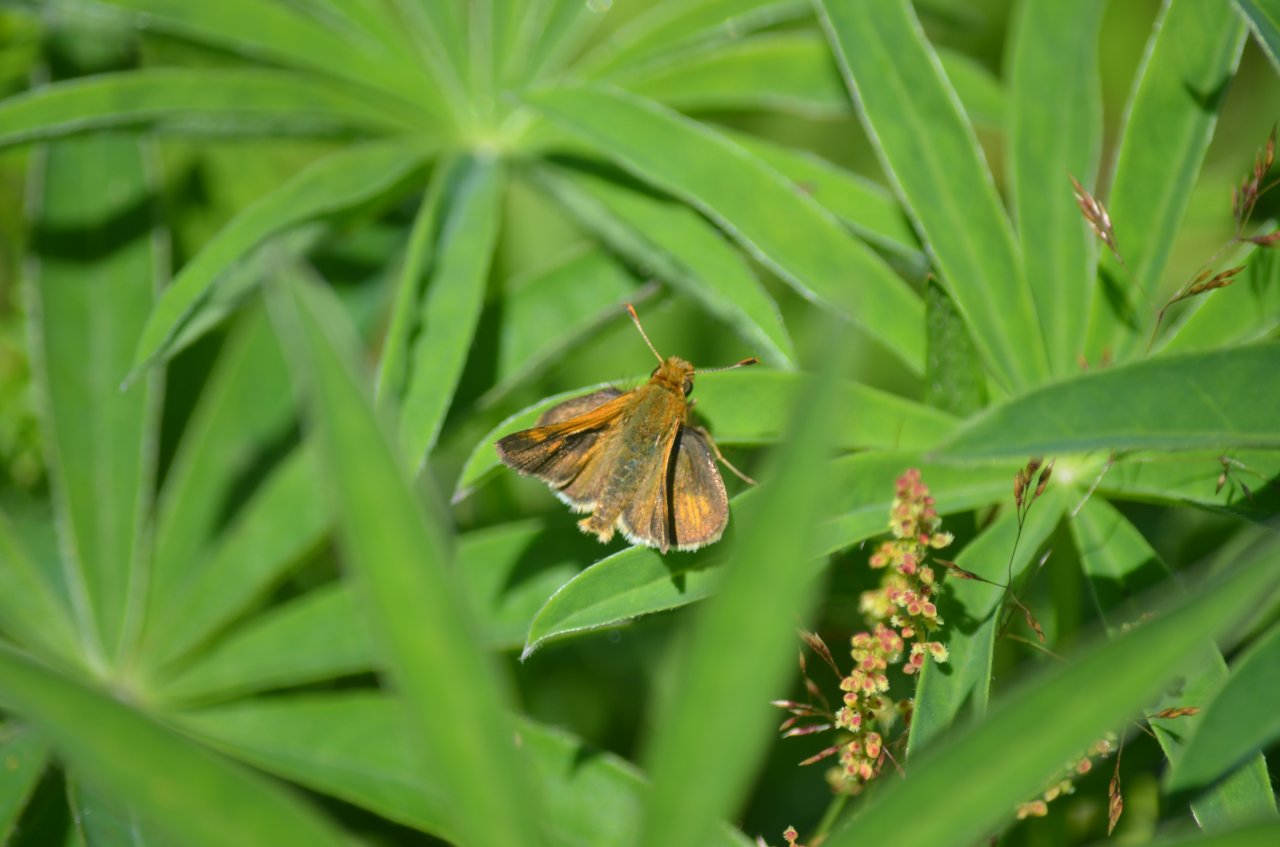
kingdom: Animalia
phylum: Arthropoda
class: Insecta
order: Lepidoptera
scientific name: Lepidoptera
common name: Butterflies
